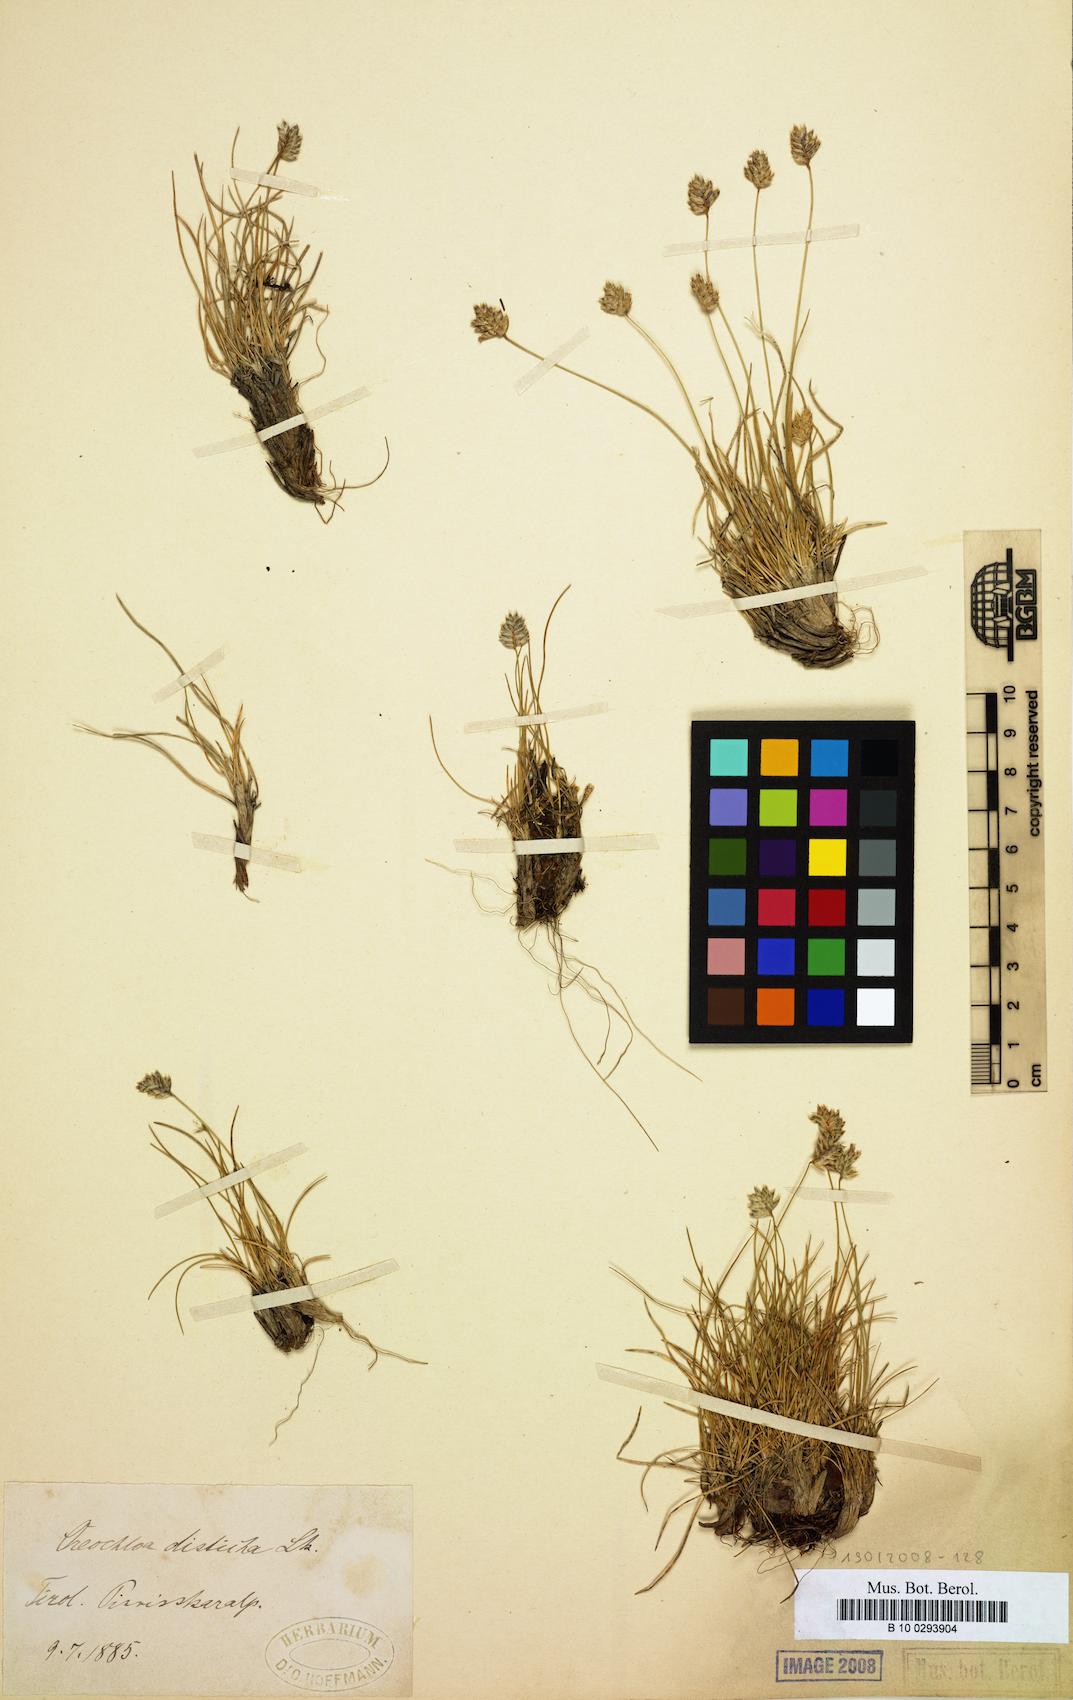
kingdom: Plantae
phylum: Tracheophyta
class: Liliopsida
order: Poales
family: Poaceae
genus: Oreochloa
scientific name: Oreochloa disticha
